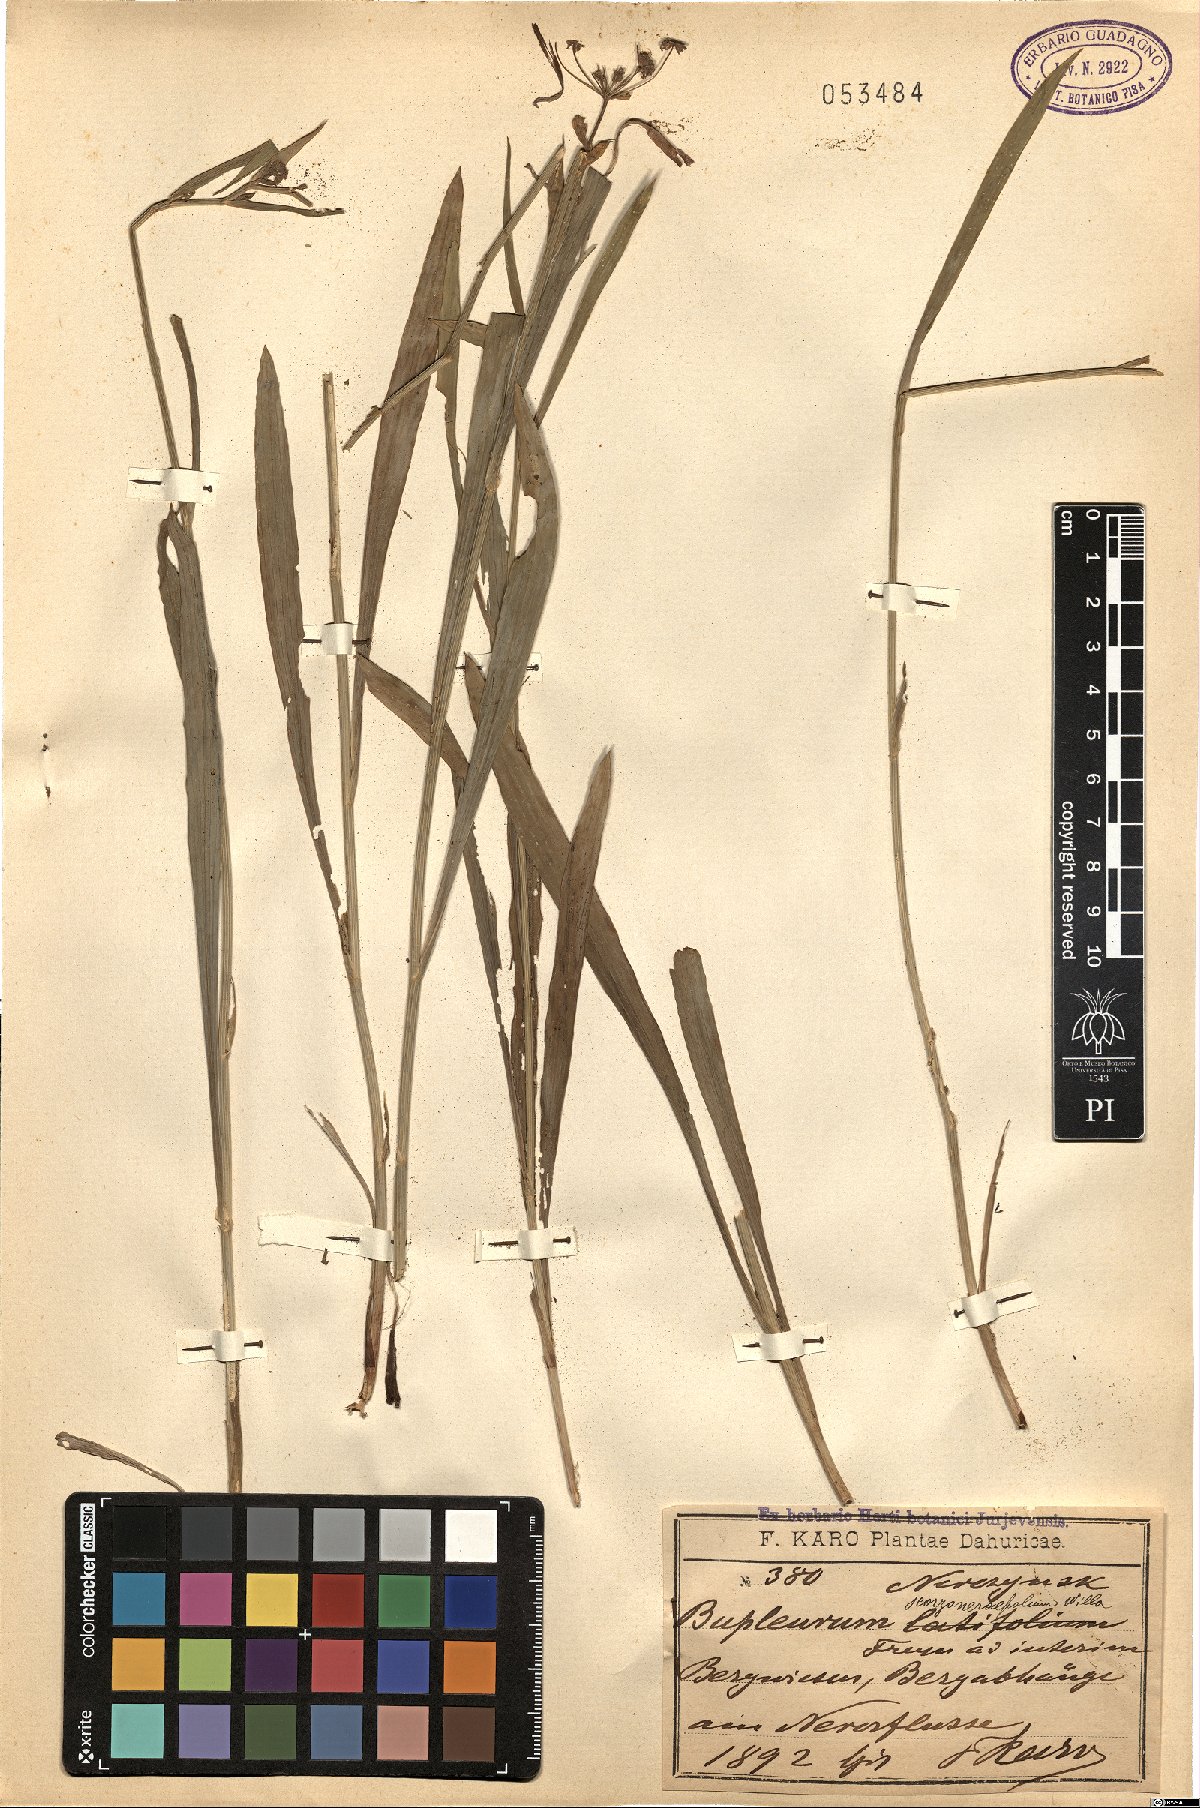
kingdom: Plantae
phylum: Tracheophyta
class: Magnoliopsida
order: Apiales
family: Apiaceae
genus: Bupleurum
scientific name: Bupleurum scorzonerifolium
